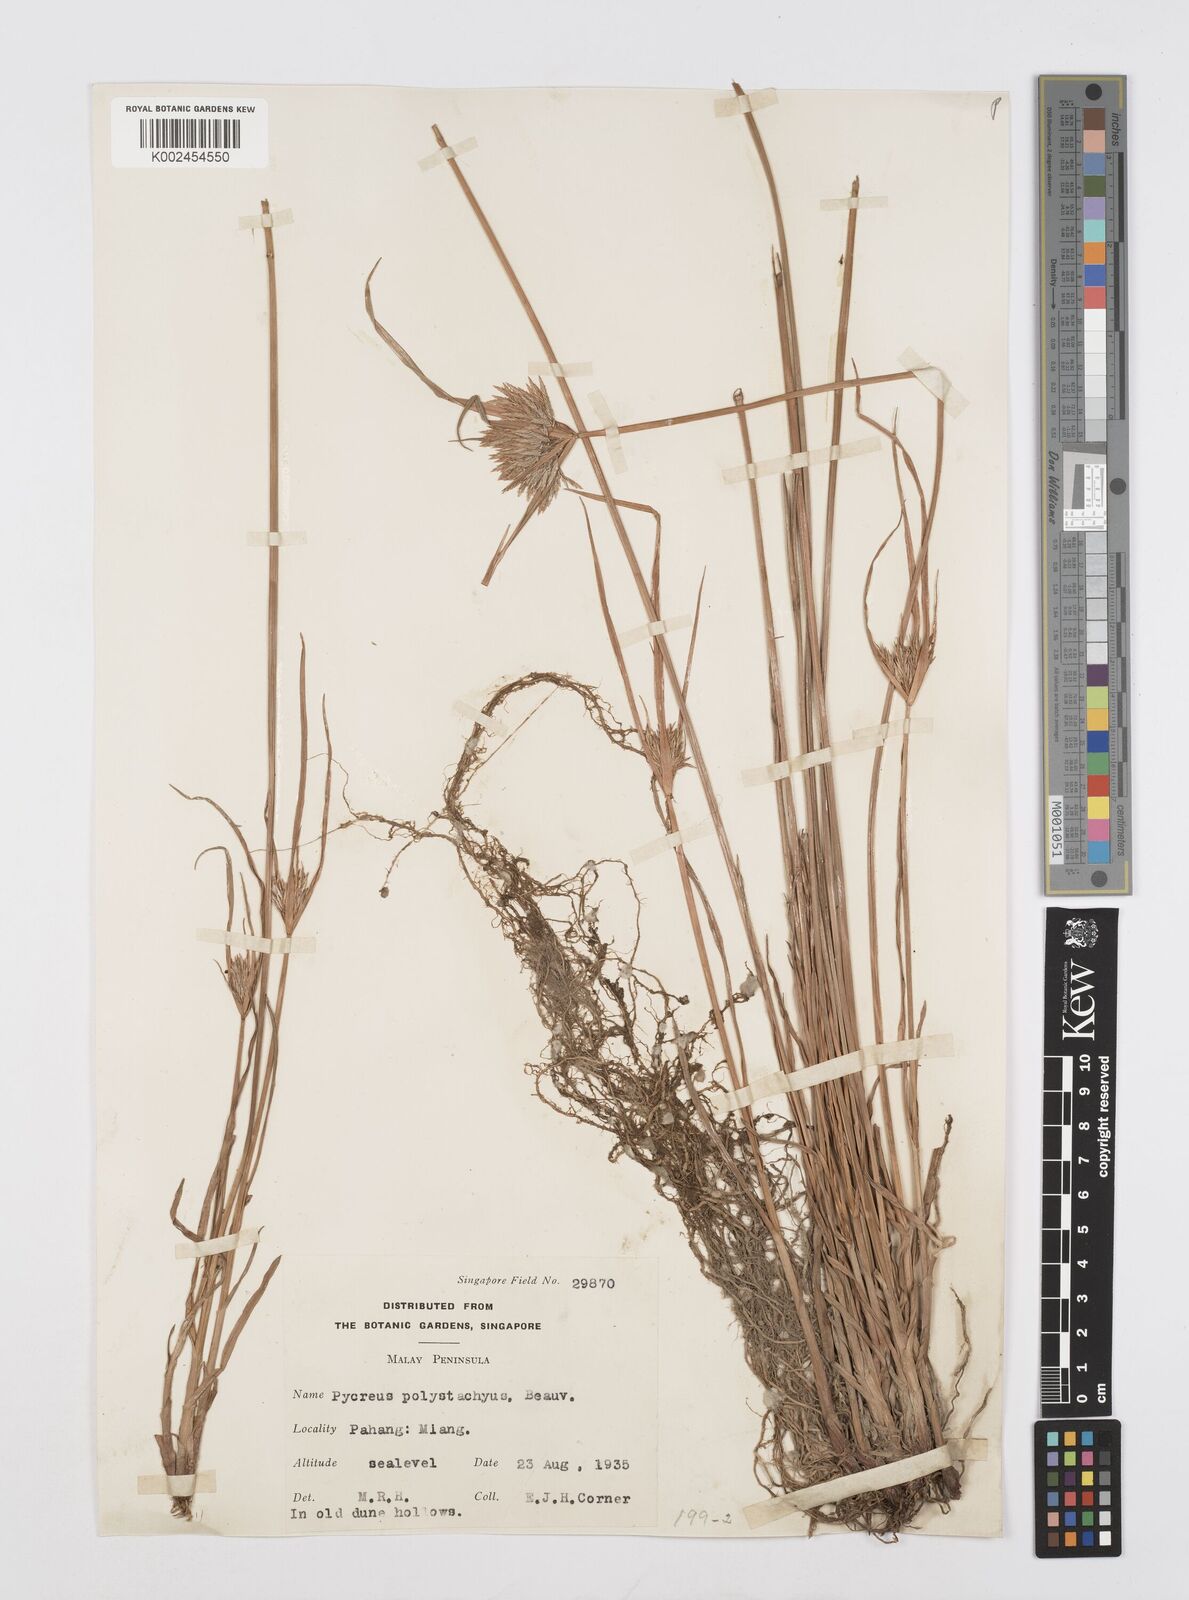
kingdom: Plantae
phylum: Tracheophyta
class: Liliopsida
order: Poales
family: Cyperaceae
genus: Cyperus
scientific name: Cyperus polystachyos
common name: Bunchy flat sedge
